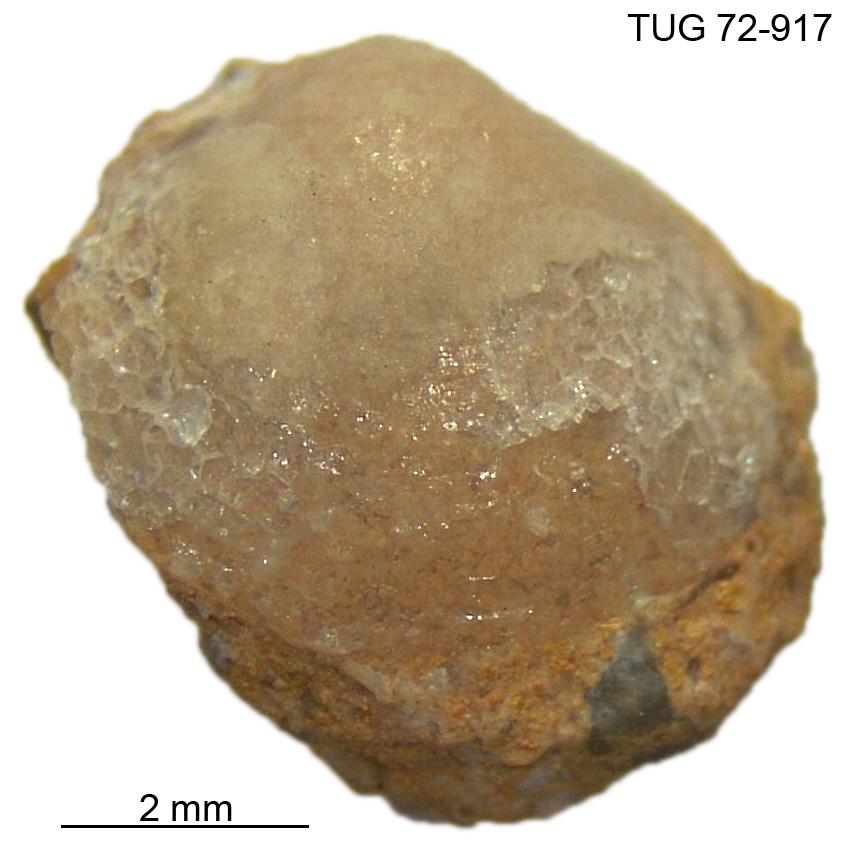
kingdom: Animalia
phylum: Mollusca
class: Bivalvia
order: Solemyida
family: Ctenodontidae
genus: Tancrediopsis
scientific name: Tancrediopsis
